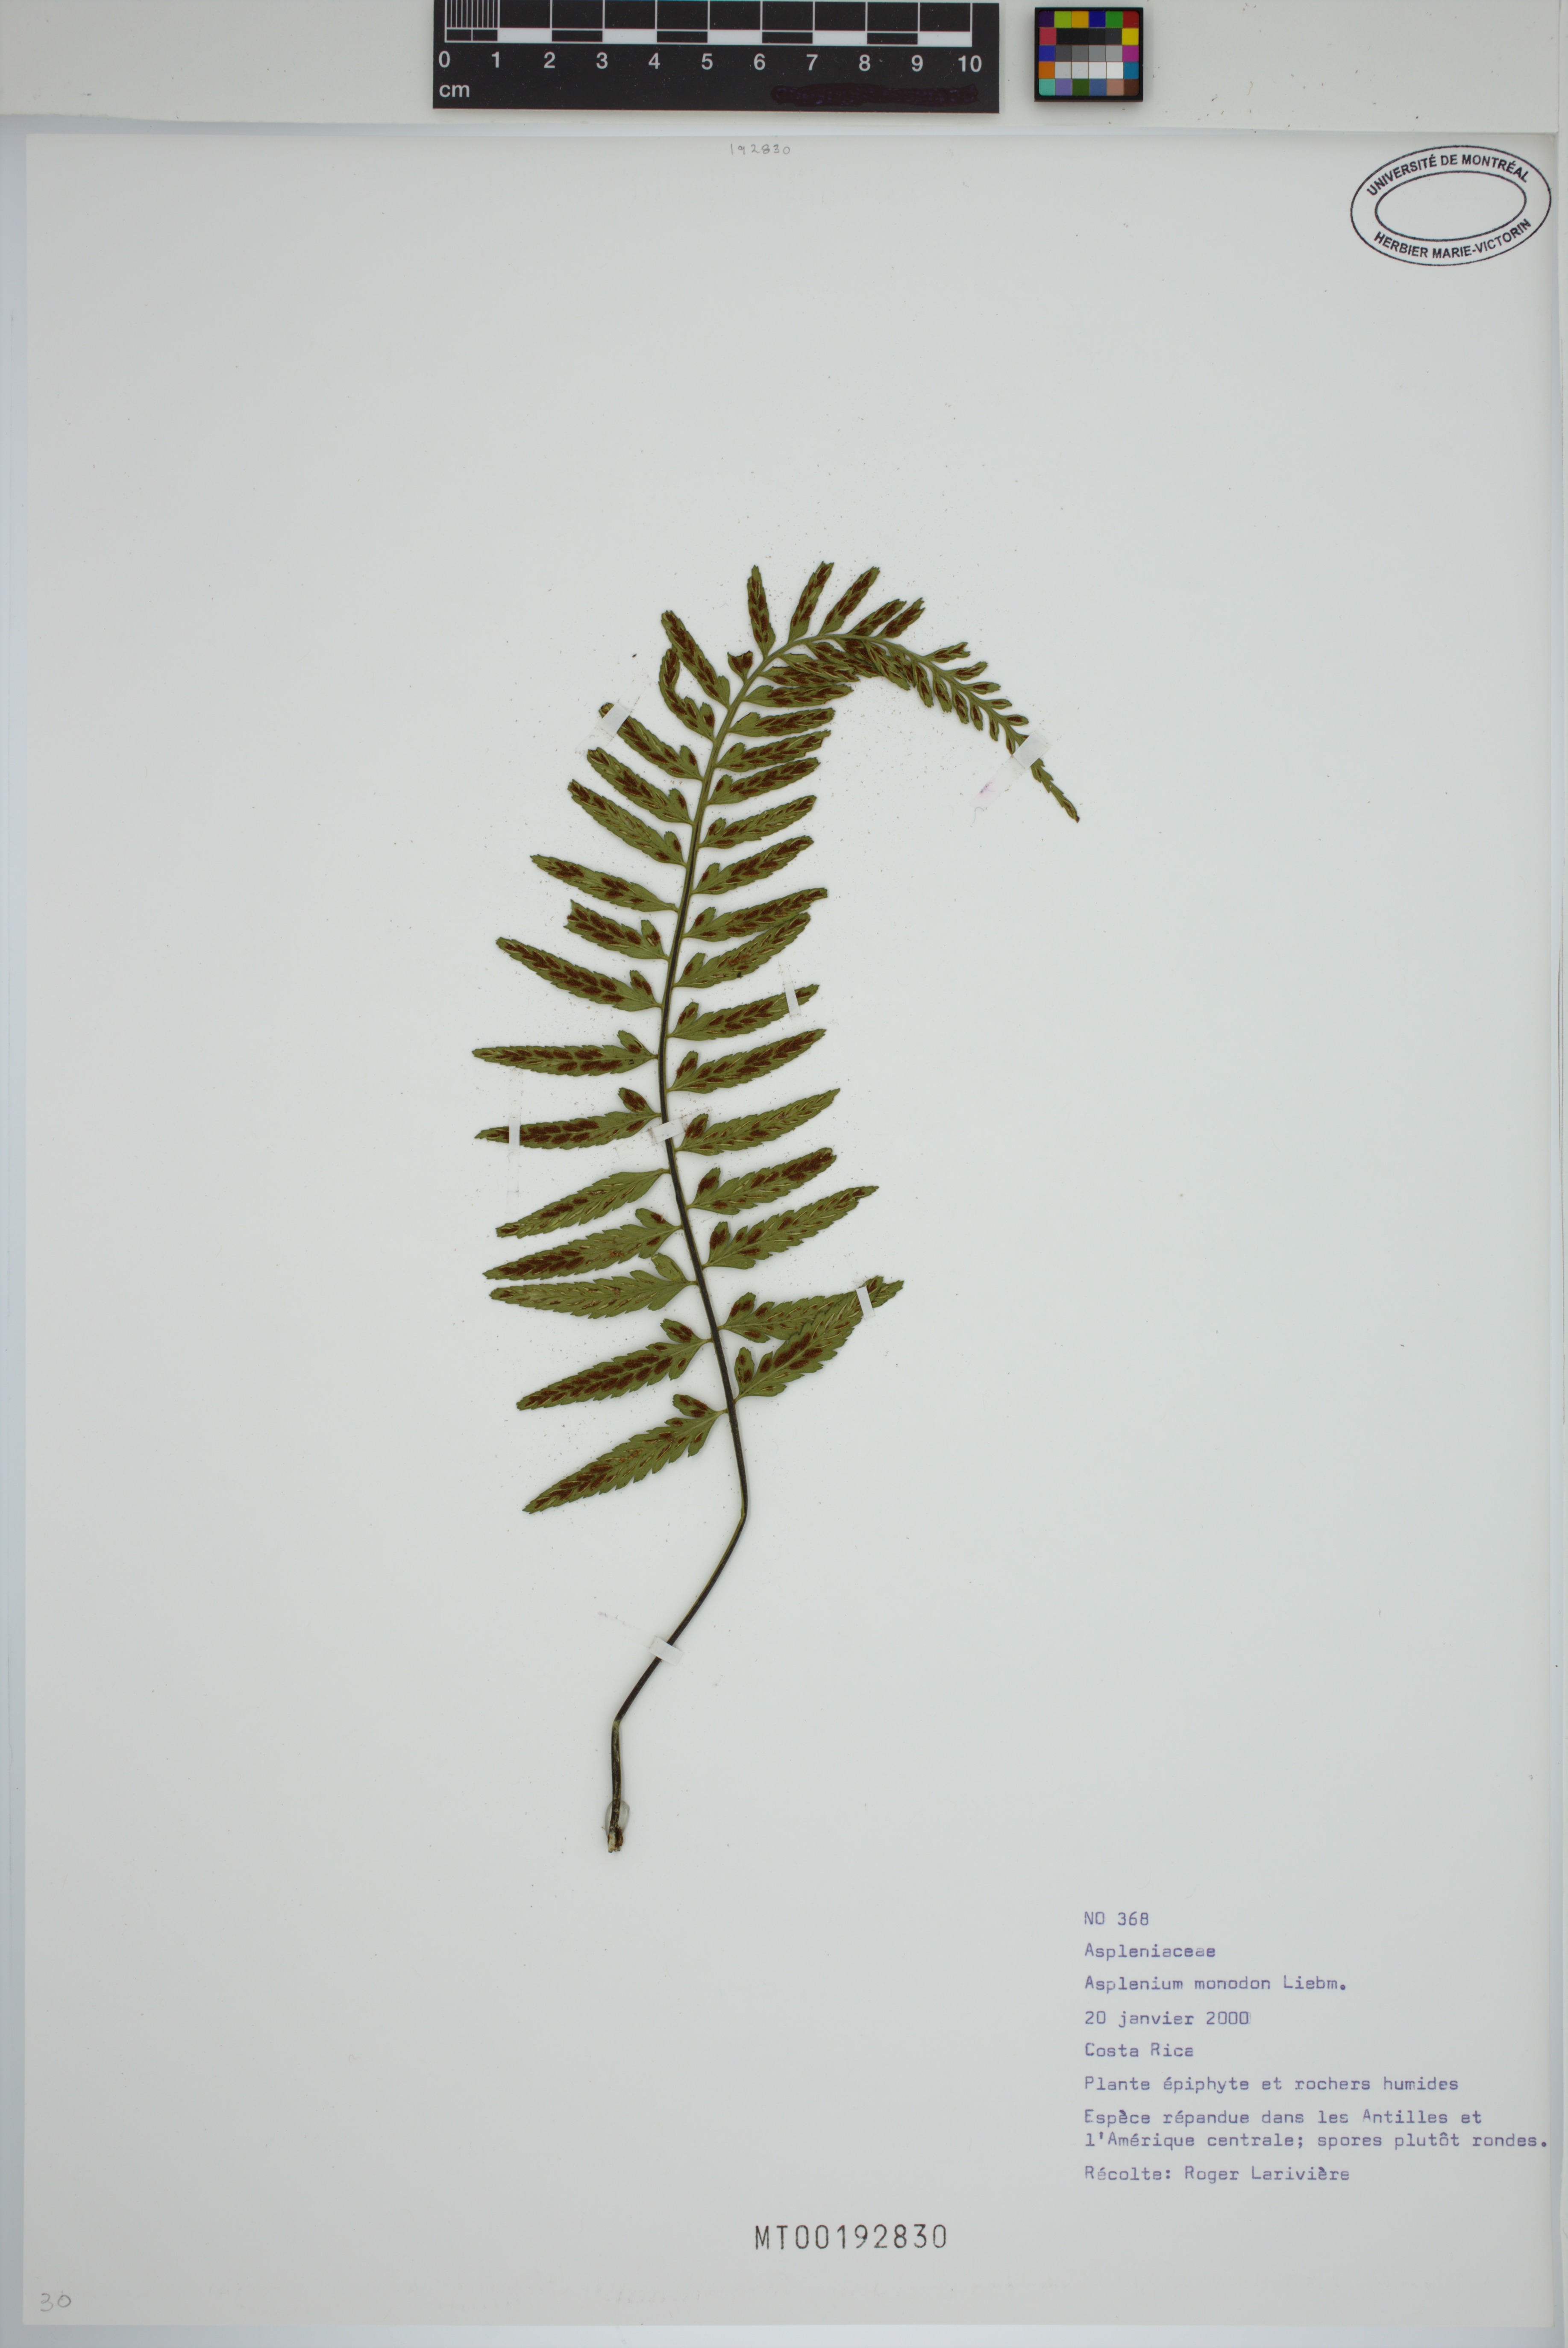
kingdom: Plantae
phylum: Tracheophyta
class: Polypodiopsida
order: Polypodiales
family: Aspleniaceae
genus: Asplenium
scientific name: Asplenium monodon
